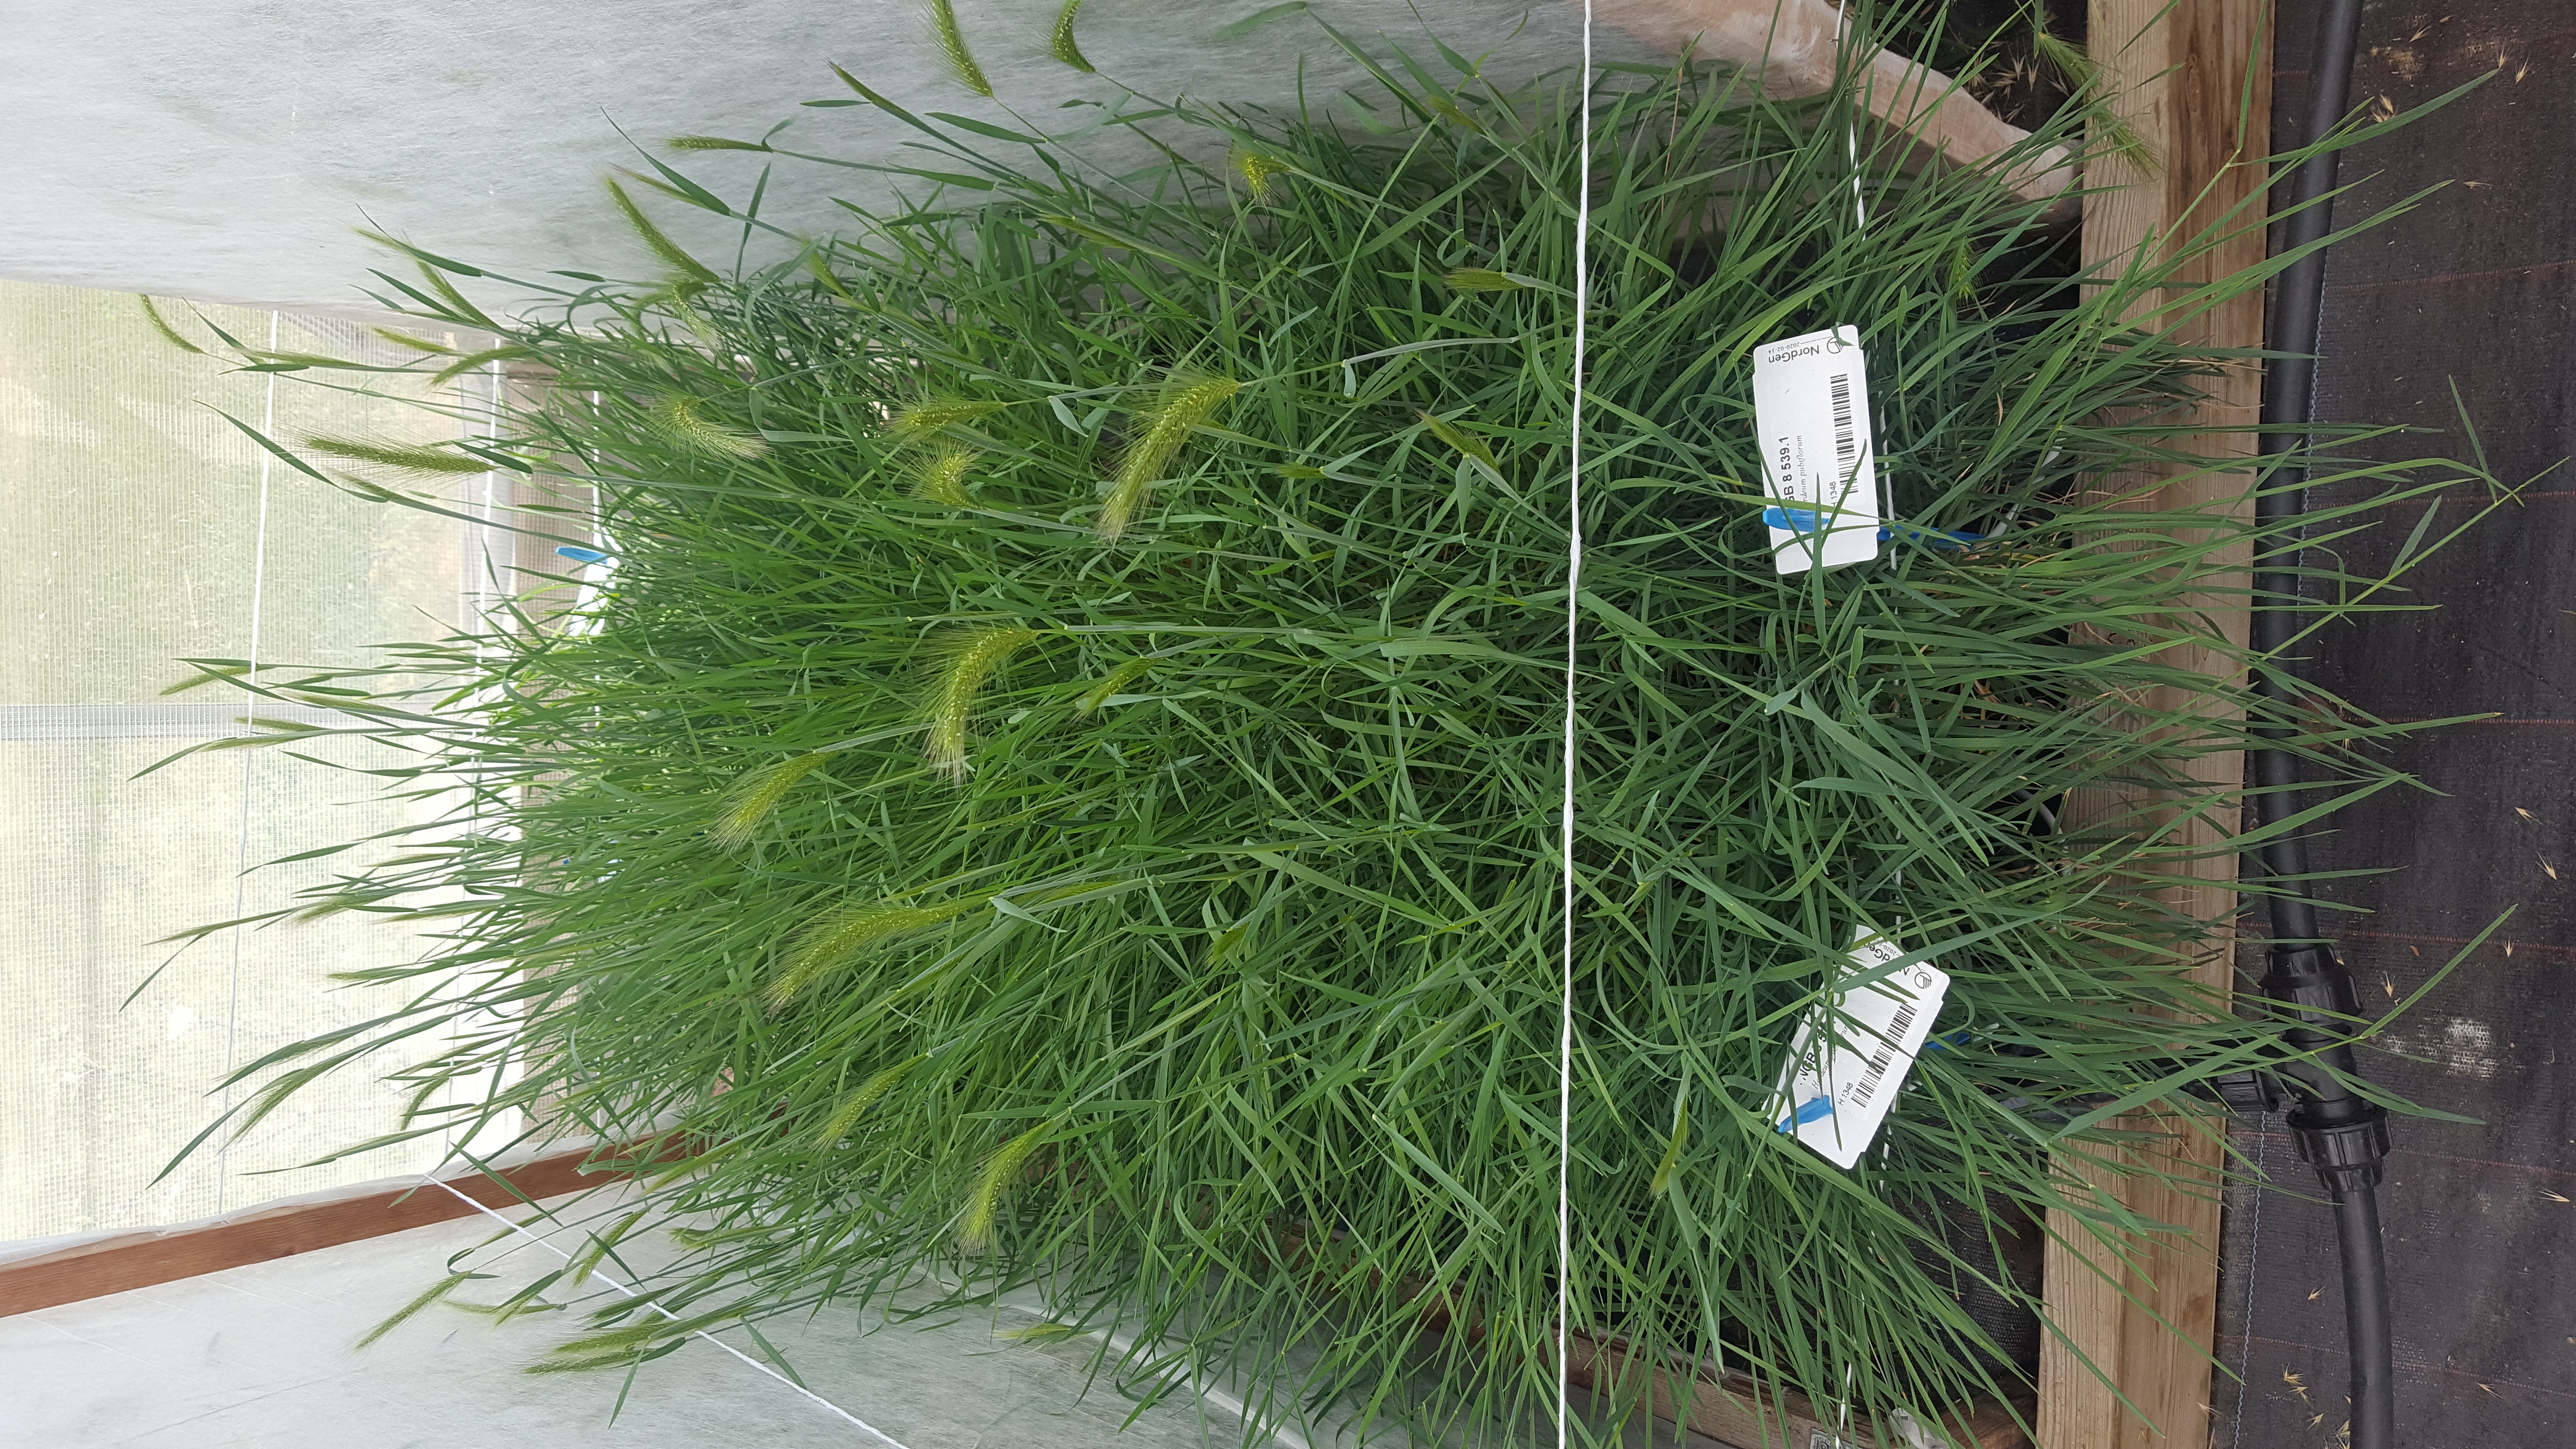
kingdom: Plantae
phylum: Tracheophyta
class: Liliopsida
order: Poales
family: Poaceae
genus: Hordeum
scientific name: Hordeum pubiflorum
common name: Antarctic barley
